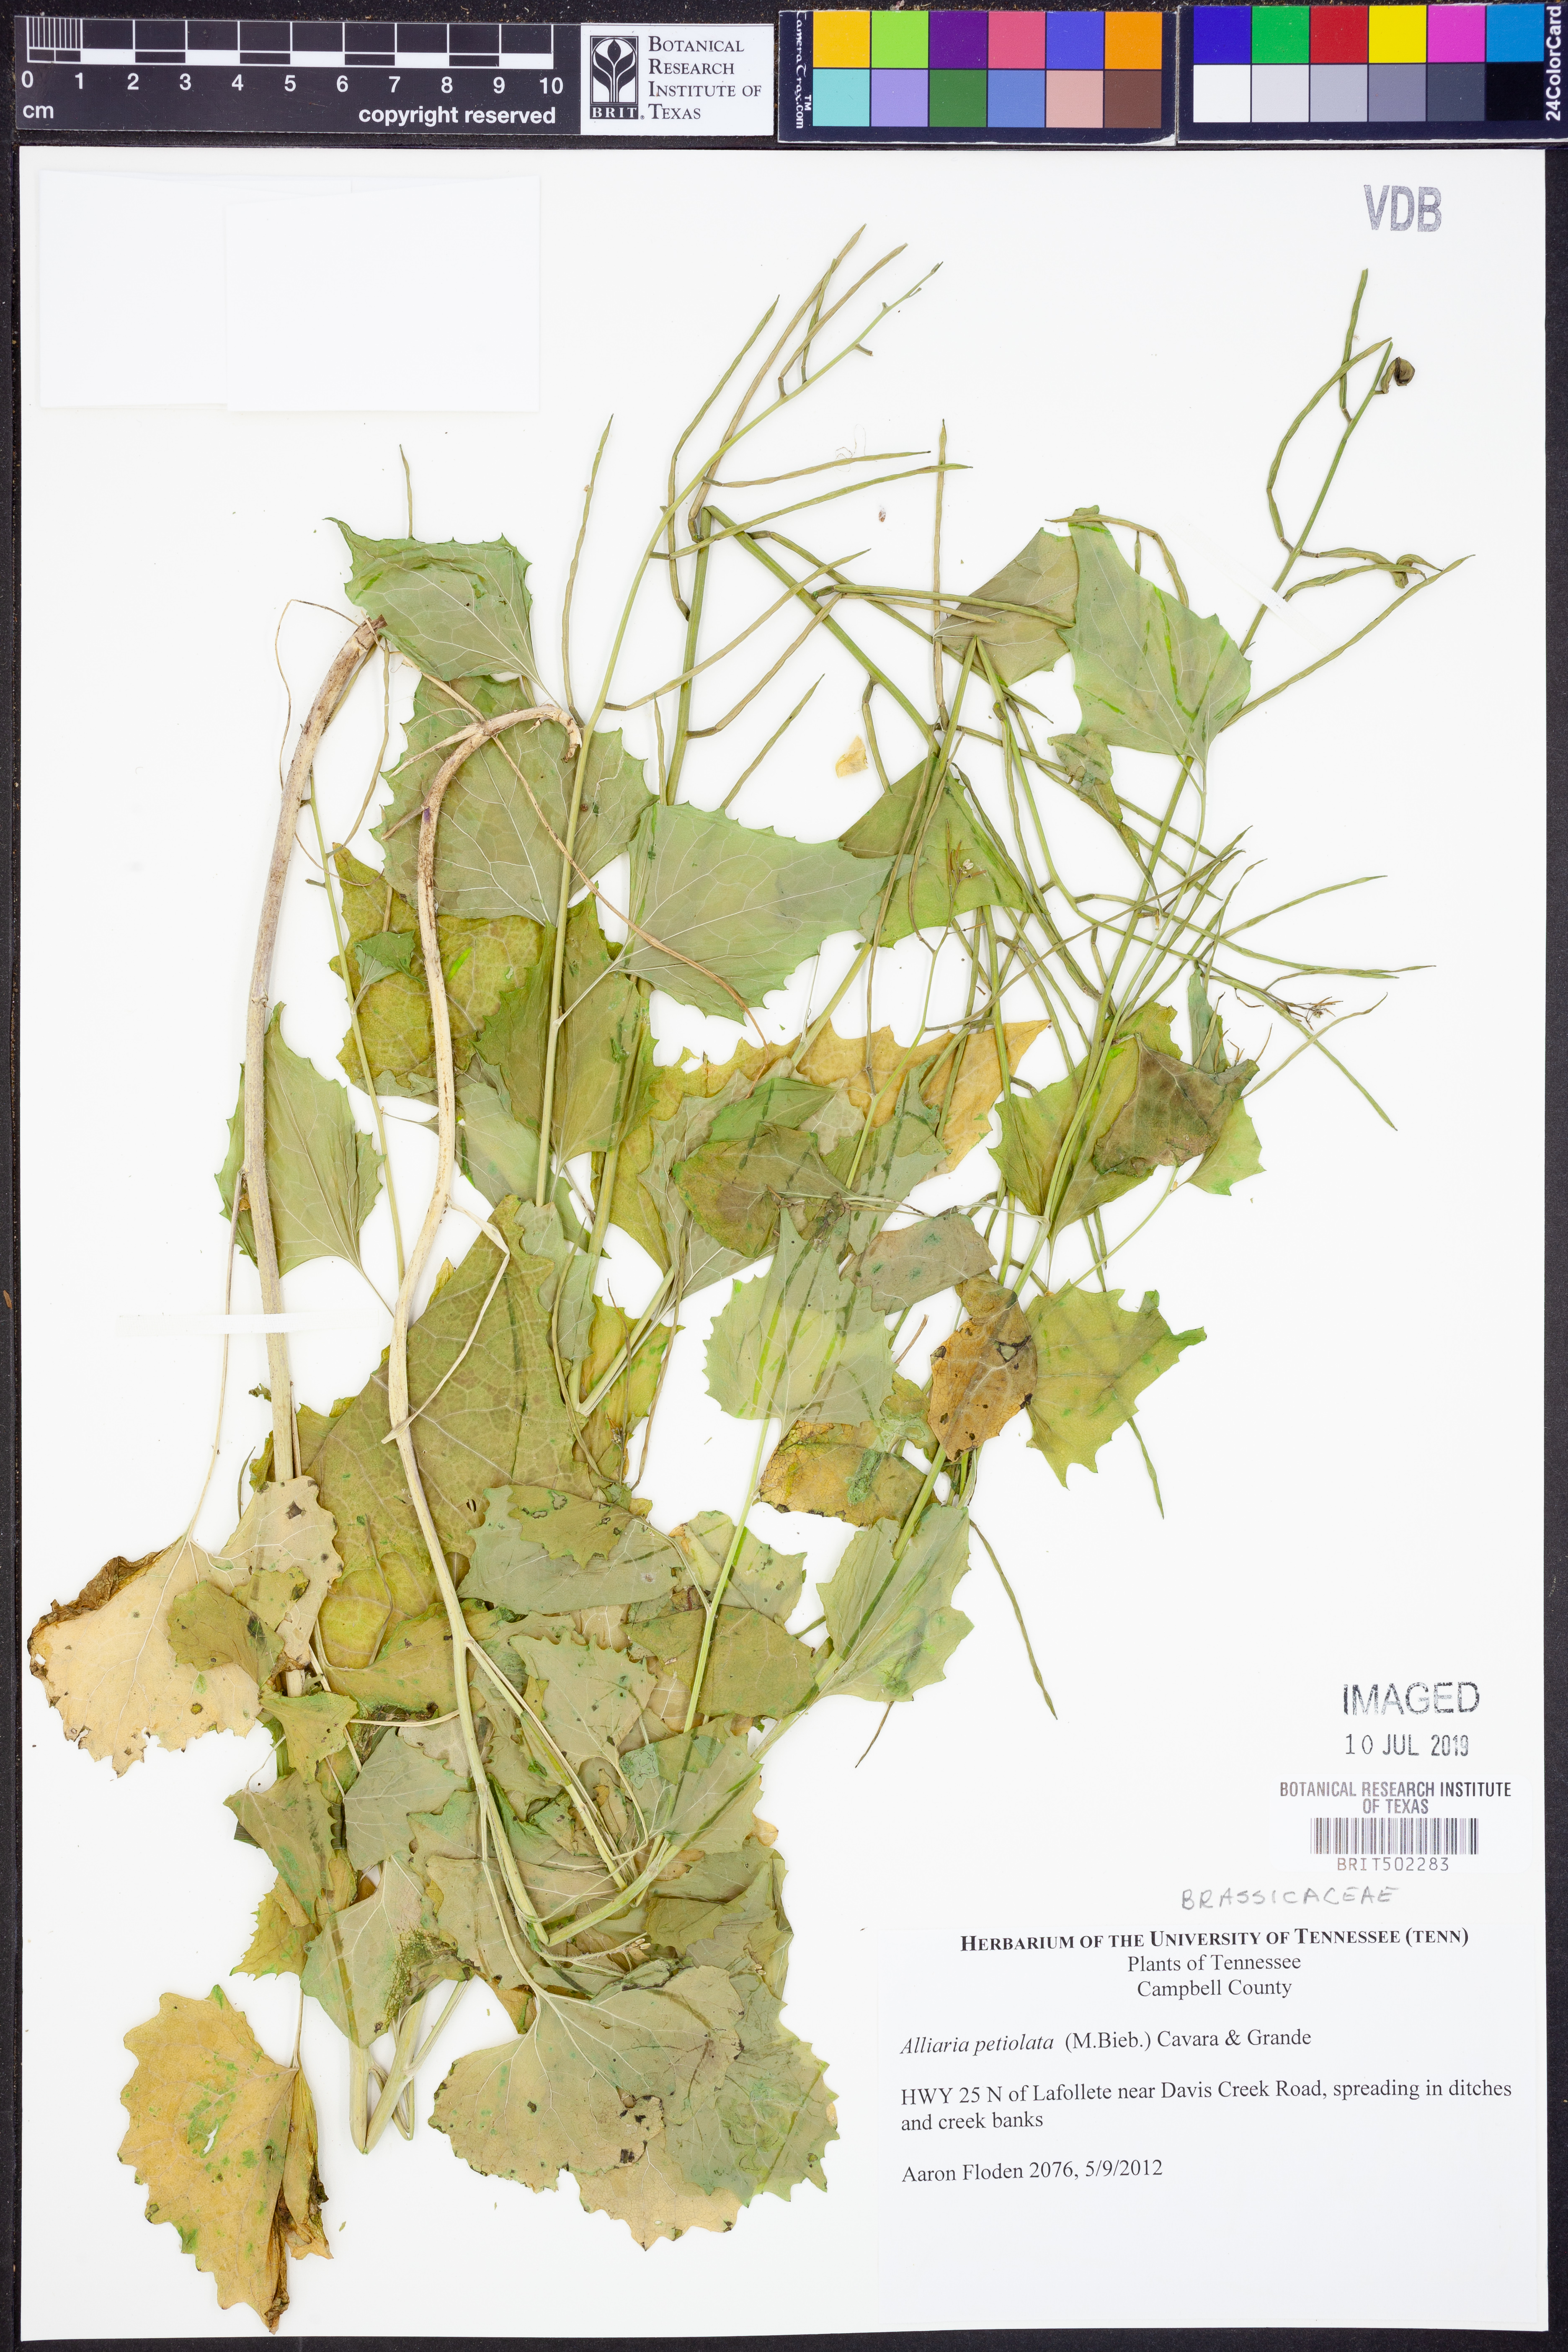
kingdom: Plantae
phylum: Tracheophyta
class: Magnoliopsida
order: Brassicales
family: Brassicaceae
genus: Alliaria
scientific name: Alliaria petiolata
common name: Garlic mustard
